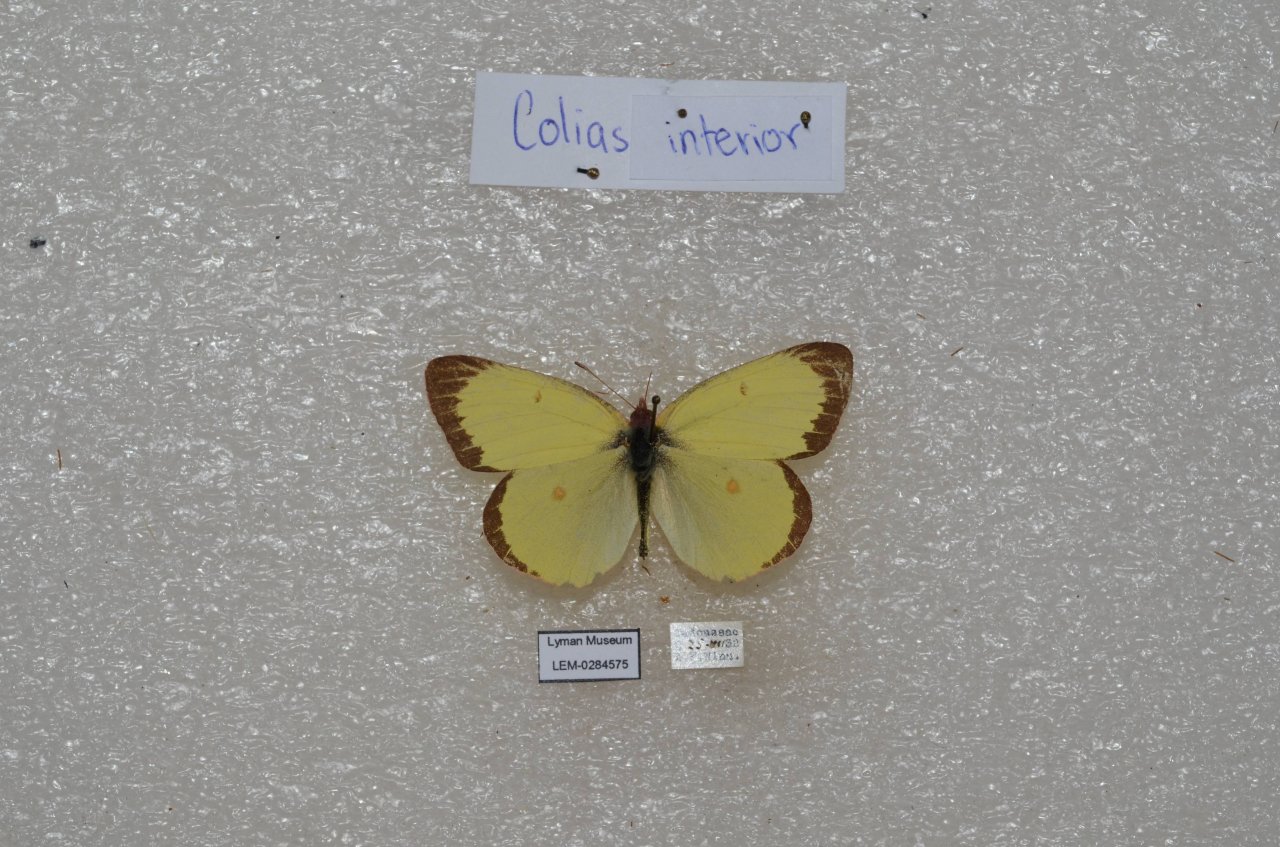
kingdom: Animalia
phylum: Arthropoda
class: Insecta
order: Lepidoptera
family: Pieridae
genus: Colias
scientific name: Colias interior
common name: Pink-edged Sulphur
